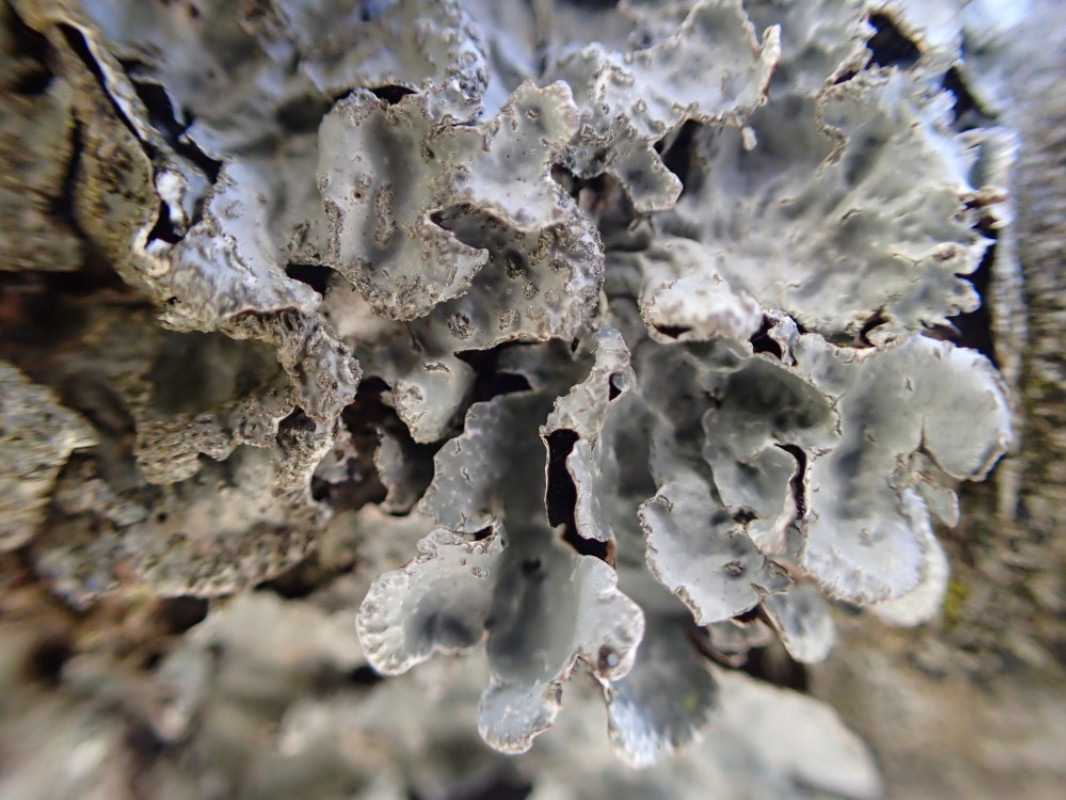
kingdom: Fungi
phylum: Ascomycota
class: Lecanoromycetes
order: Lecanorales
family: Parmeliaceae
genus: Parmelia
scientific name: Parmelia sulcata
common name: rynket skållav
